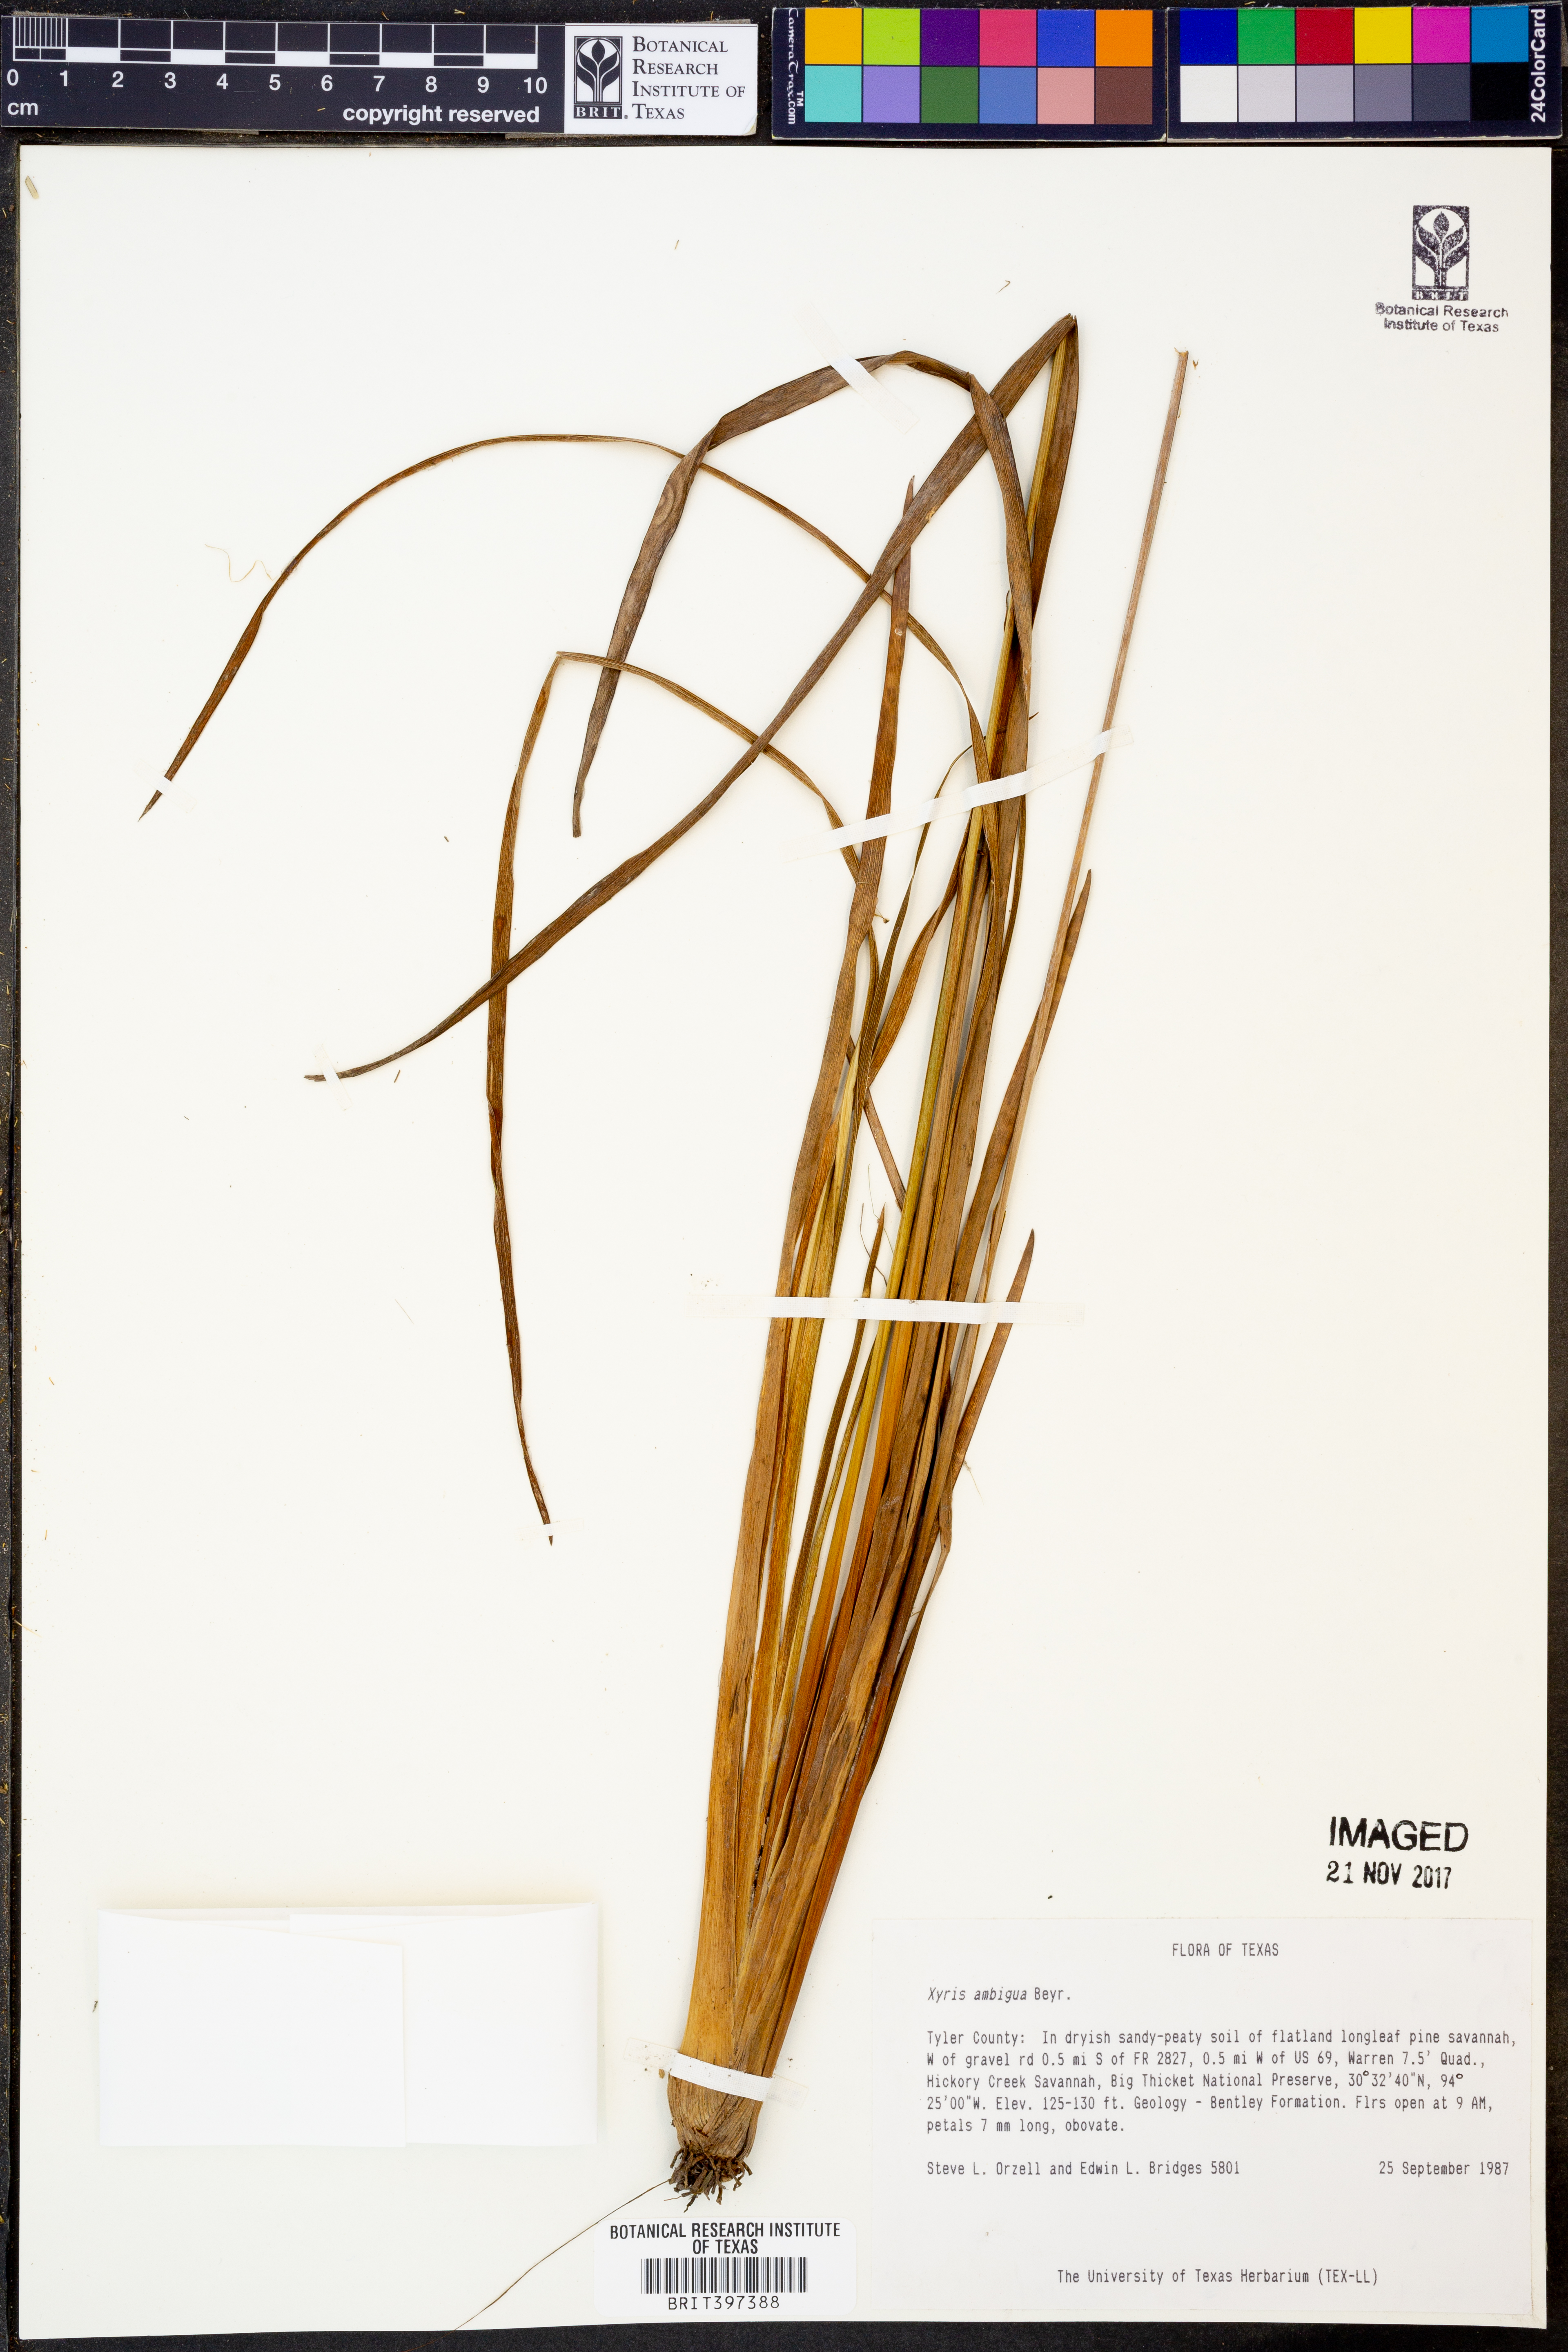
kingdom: Plantae
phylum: Tracheophyta
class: Liliopsida
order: Poales
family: Xyridaceae
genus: Xyris
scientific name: Xyris ambigua
